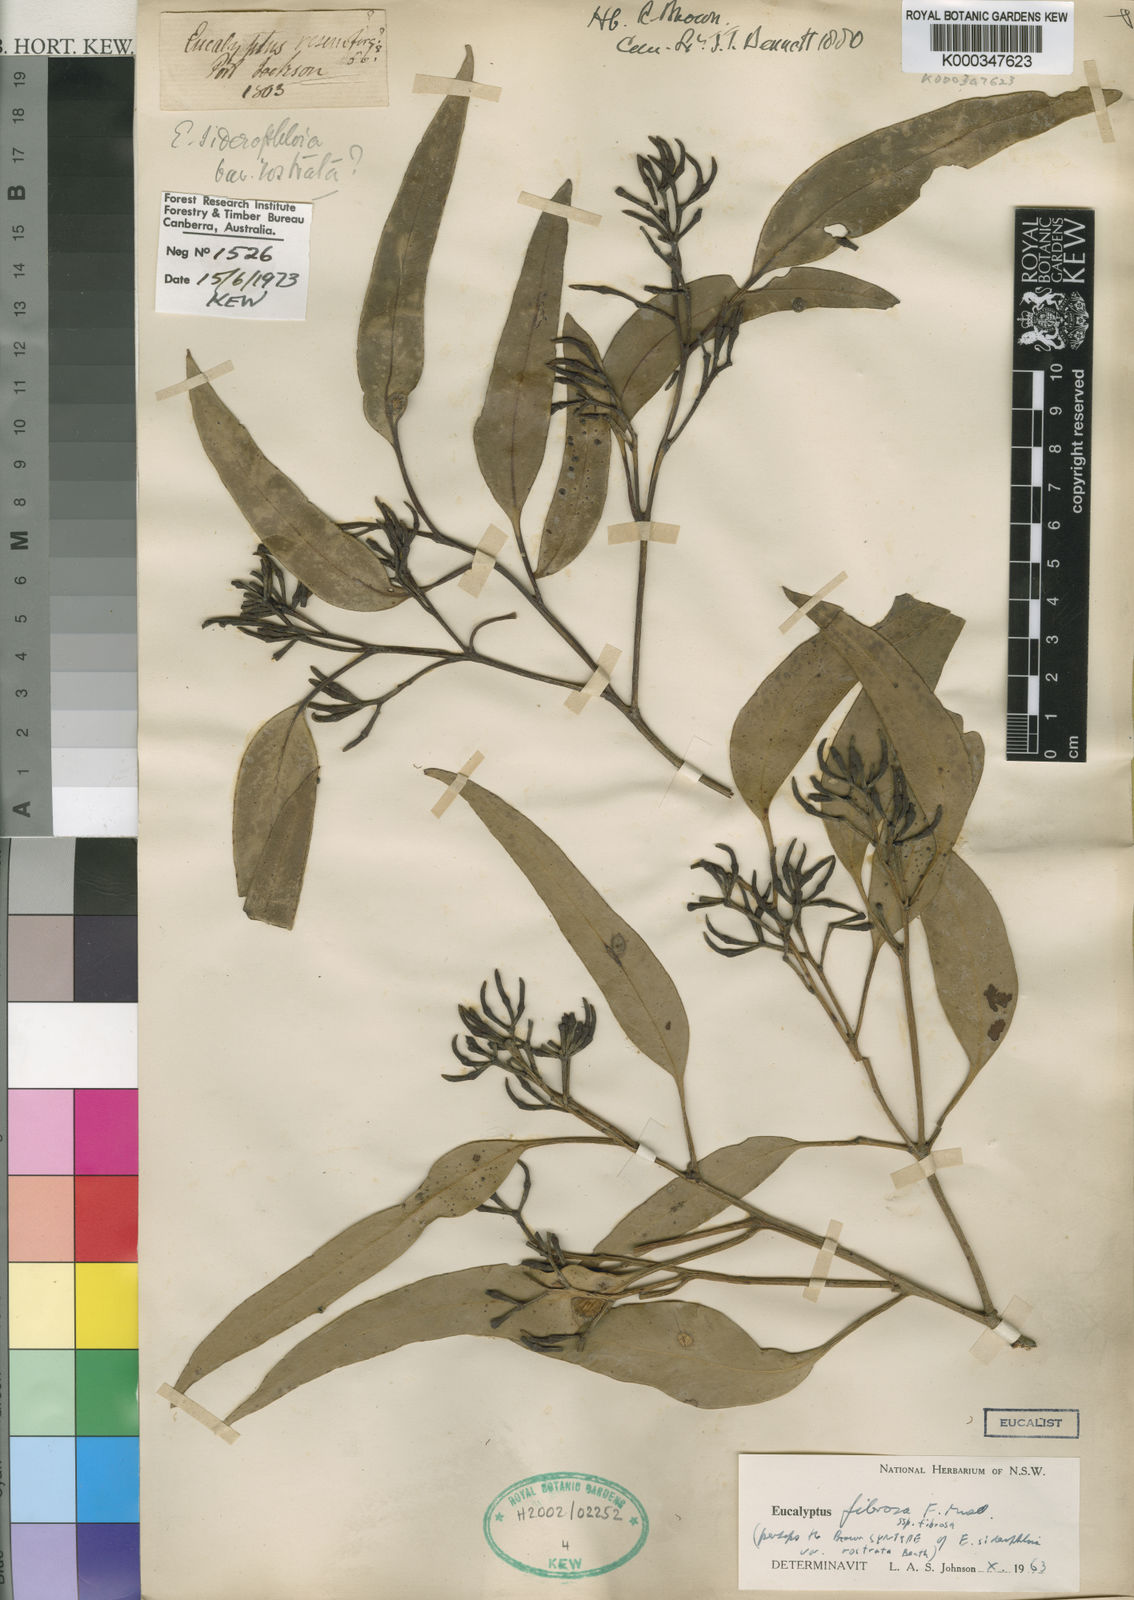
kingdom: Plantae
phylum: Tracheophyta
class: Magnoliopsida
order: Myrtales
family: Myrtaceae
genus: Eucalyptus
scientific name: Eucalyptus fibrosa
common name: Red ironbark
